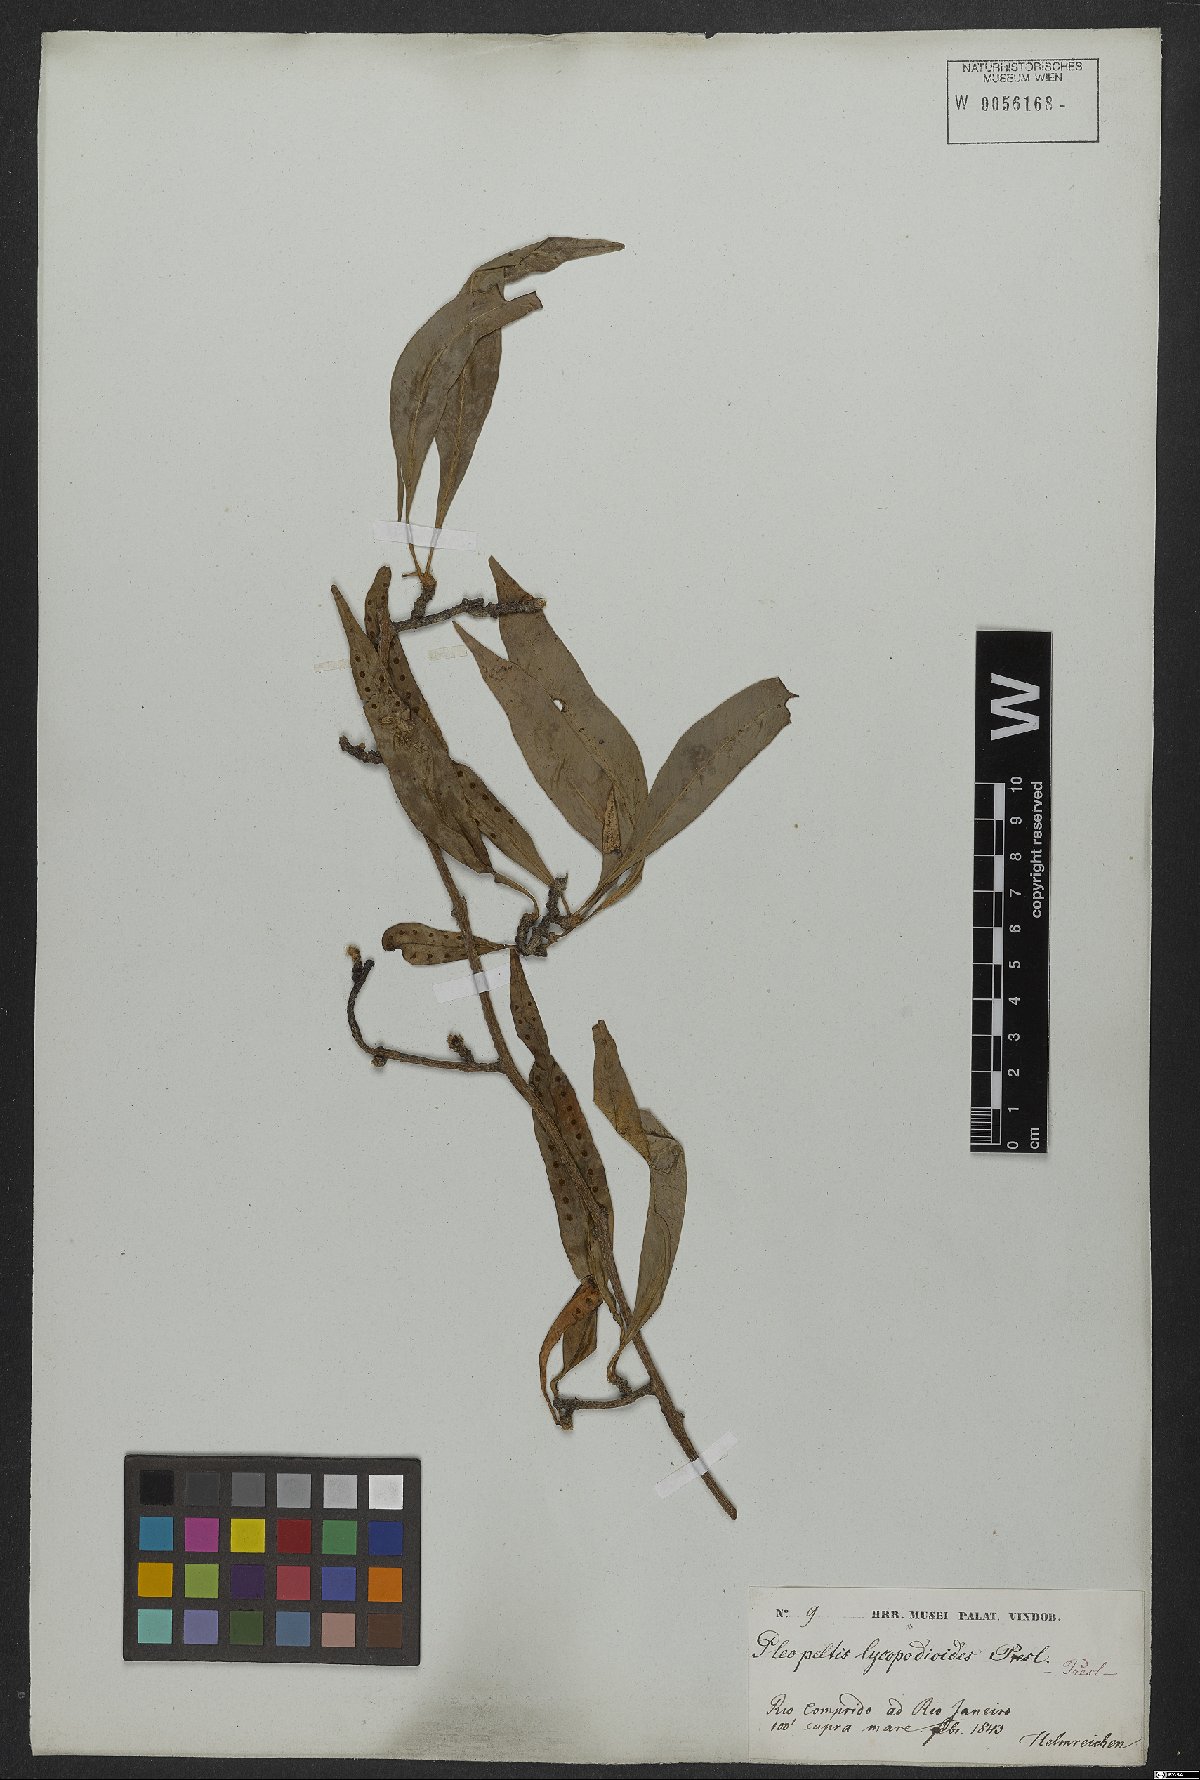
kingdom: Plantae
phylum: Tracheophyta
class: Polypodiopsida
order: Polypodiales
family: Polypodiaceae
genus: Microgramma
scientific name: Microgramma lycopodioides
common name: Bastard catclaw
